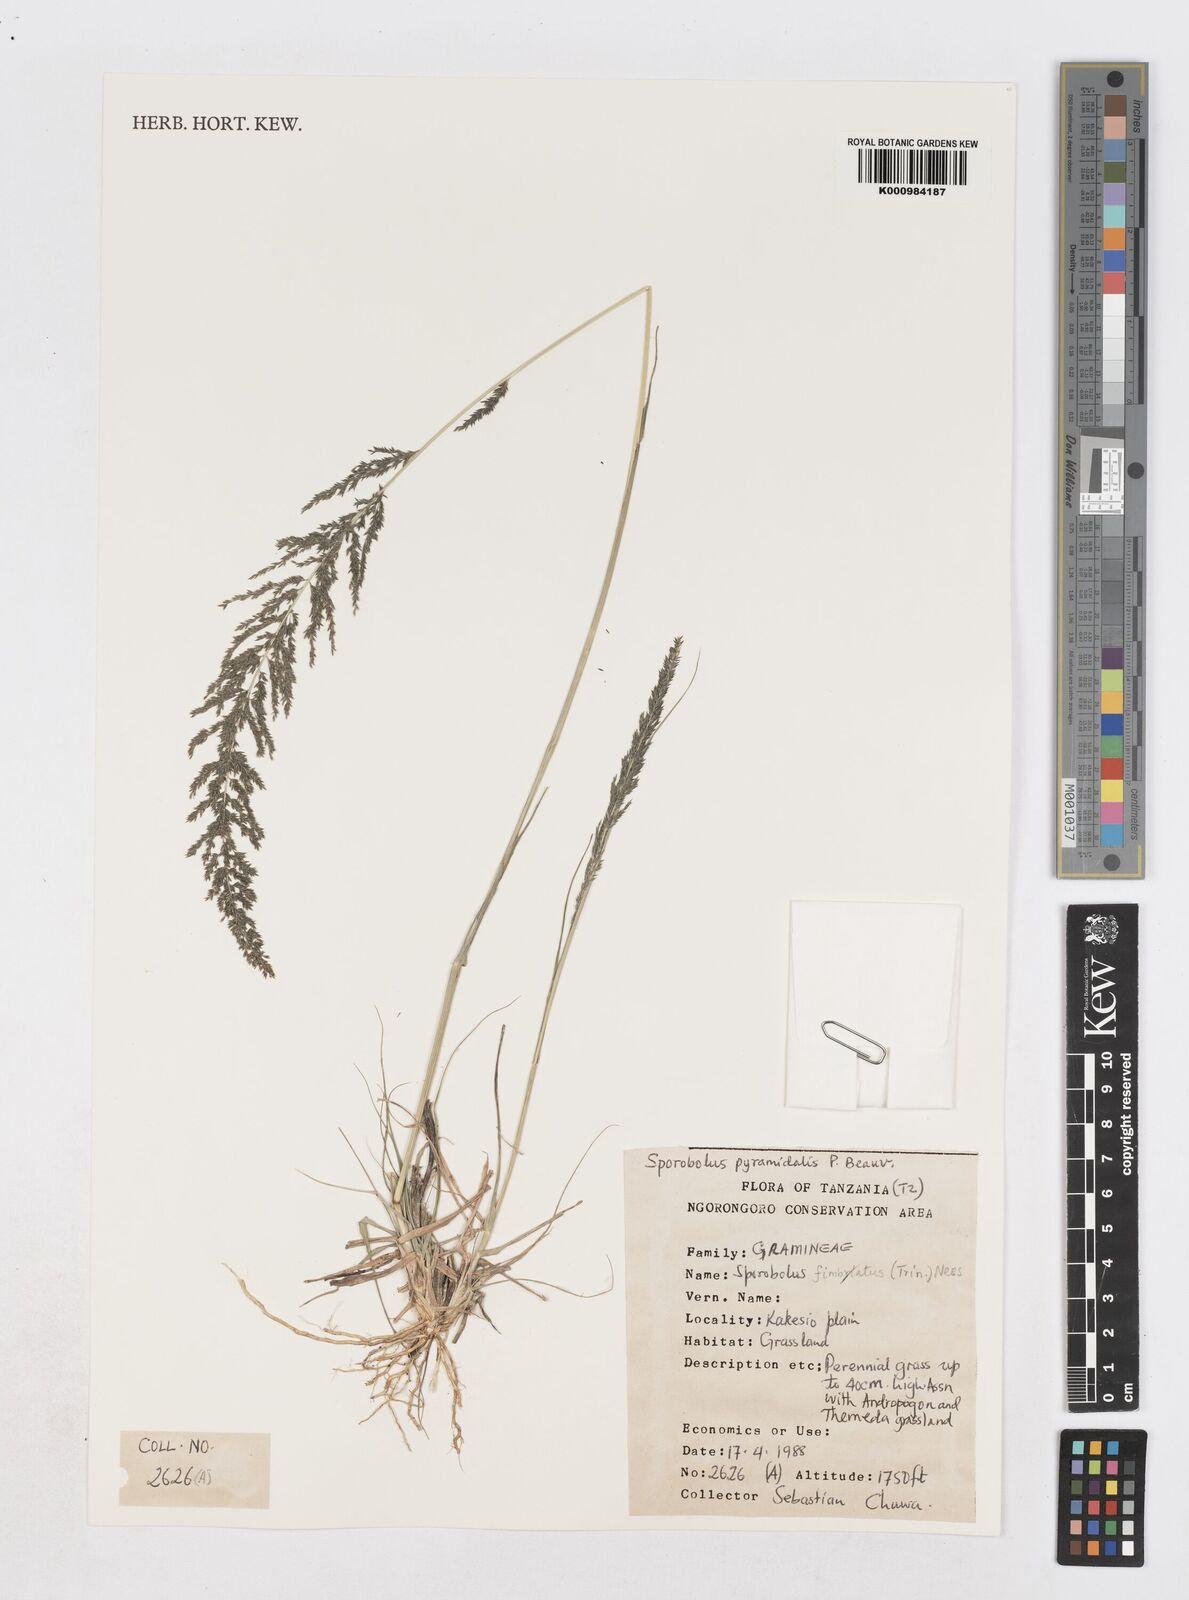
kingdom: Plantae
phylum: Tracheophyta
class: Liliopsida
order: Poales
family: Poaceae
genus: Sporobolus
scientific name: Sporobolus pyramidalis
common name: West indian dropseed
